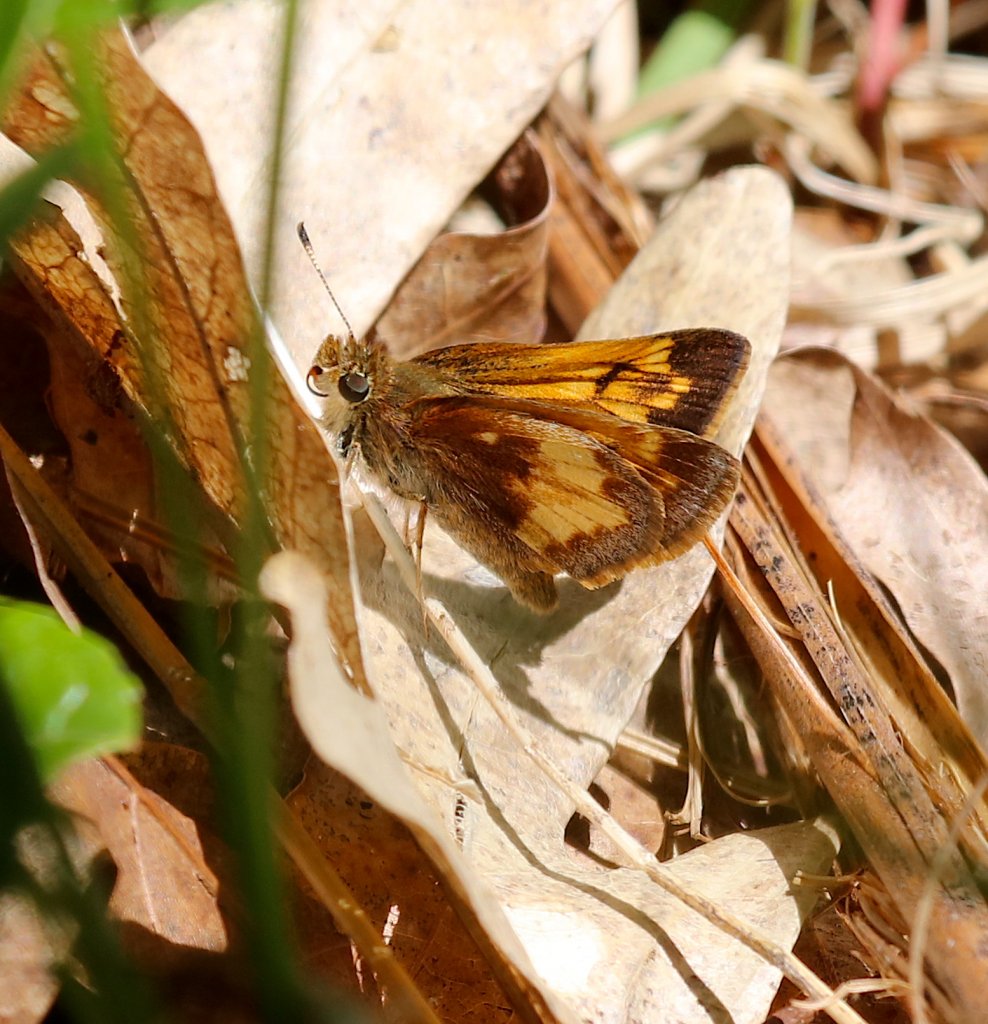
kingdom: Animalia
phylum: Arthropoda
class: Insecta
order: Lepidoptera
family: Hesperiidae
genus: Lon
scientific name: Lon hobomok
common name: Hobomok Skipper
